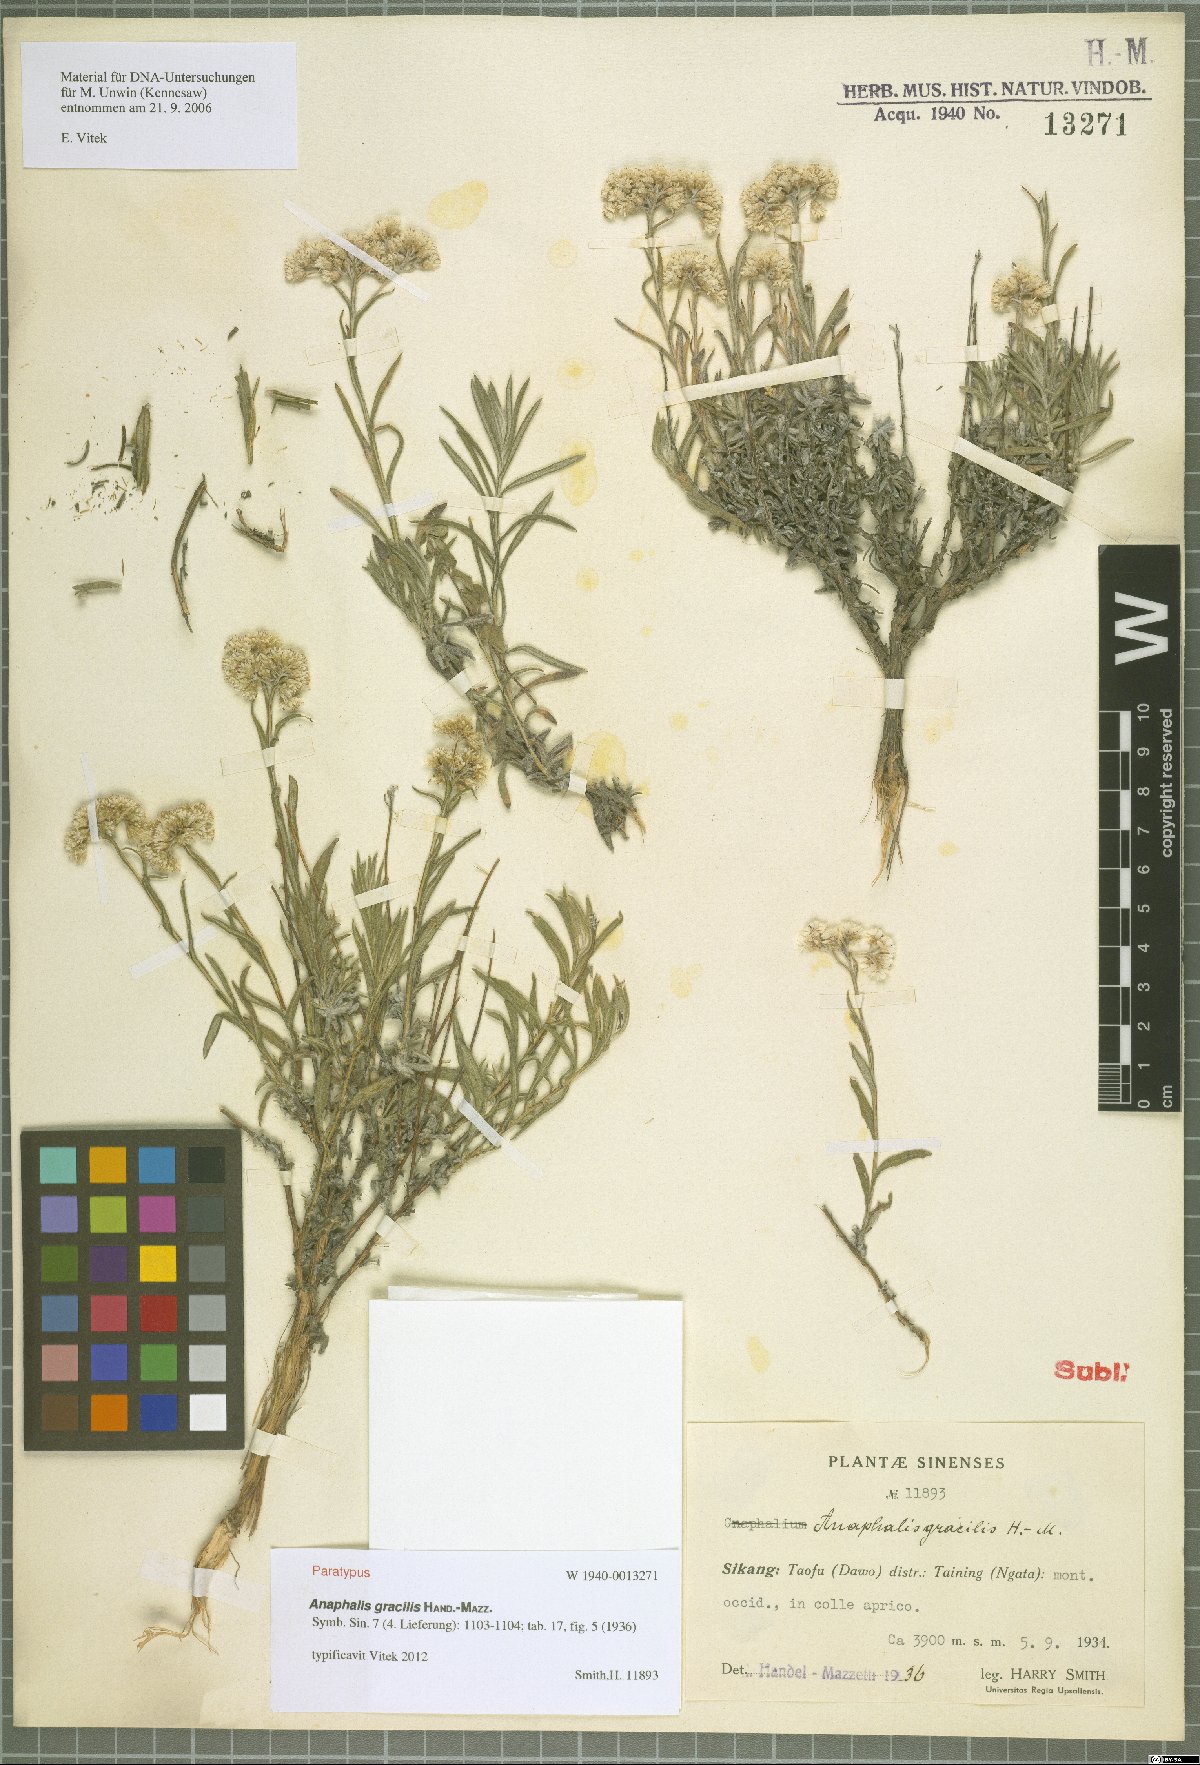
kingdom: Plantae
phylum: Tracheophyta
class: Magnoliopsida
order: Asterales
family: Asteraceae
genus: Anaphalis
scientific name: Anaphalis gracilis
